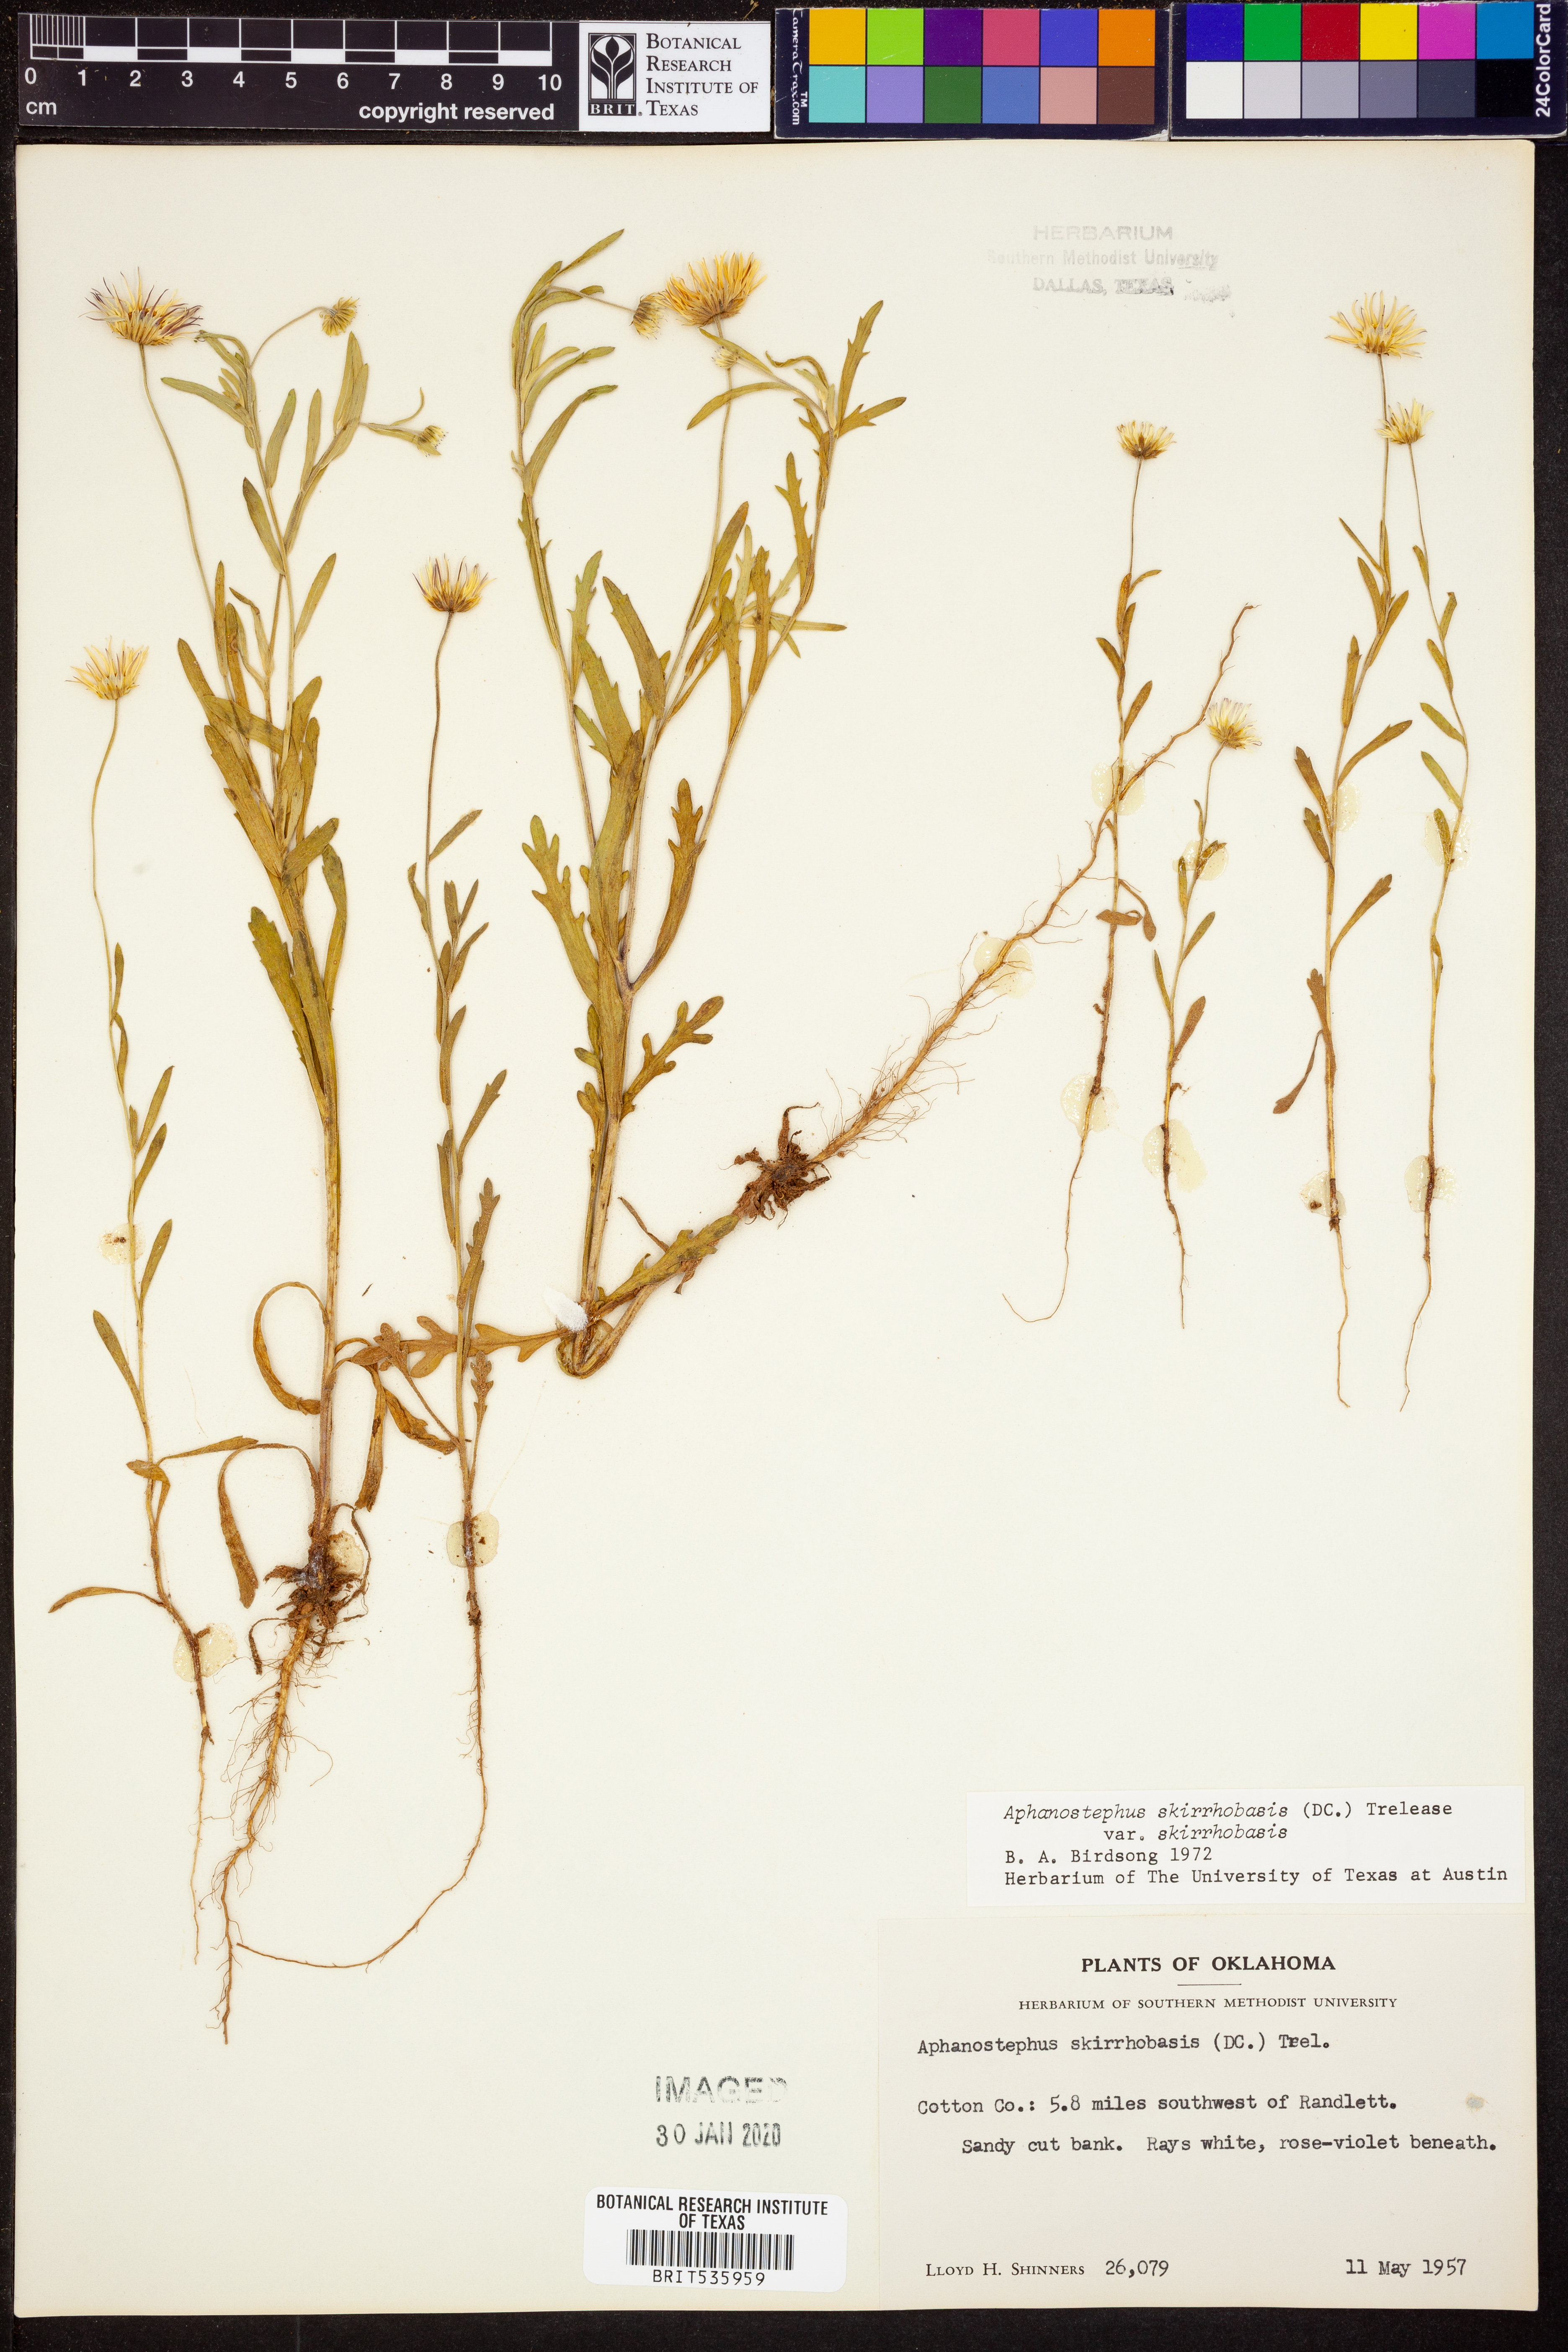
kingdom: Plantae
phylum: Tracheophyta
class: Magnoliopsida
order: Asterales
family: Asteraceae
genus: Aphanostephus
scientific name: Aphanostephus skirrhobasis
